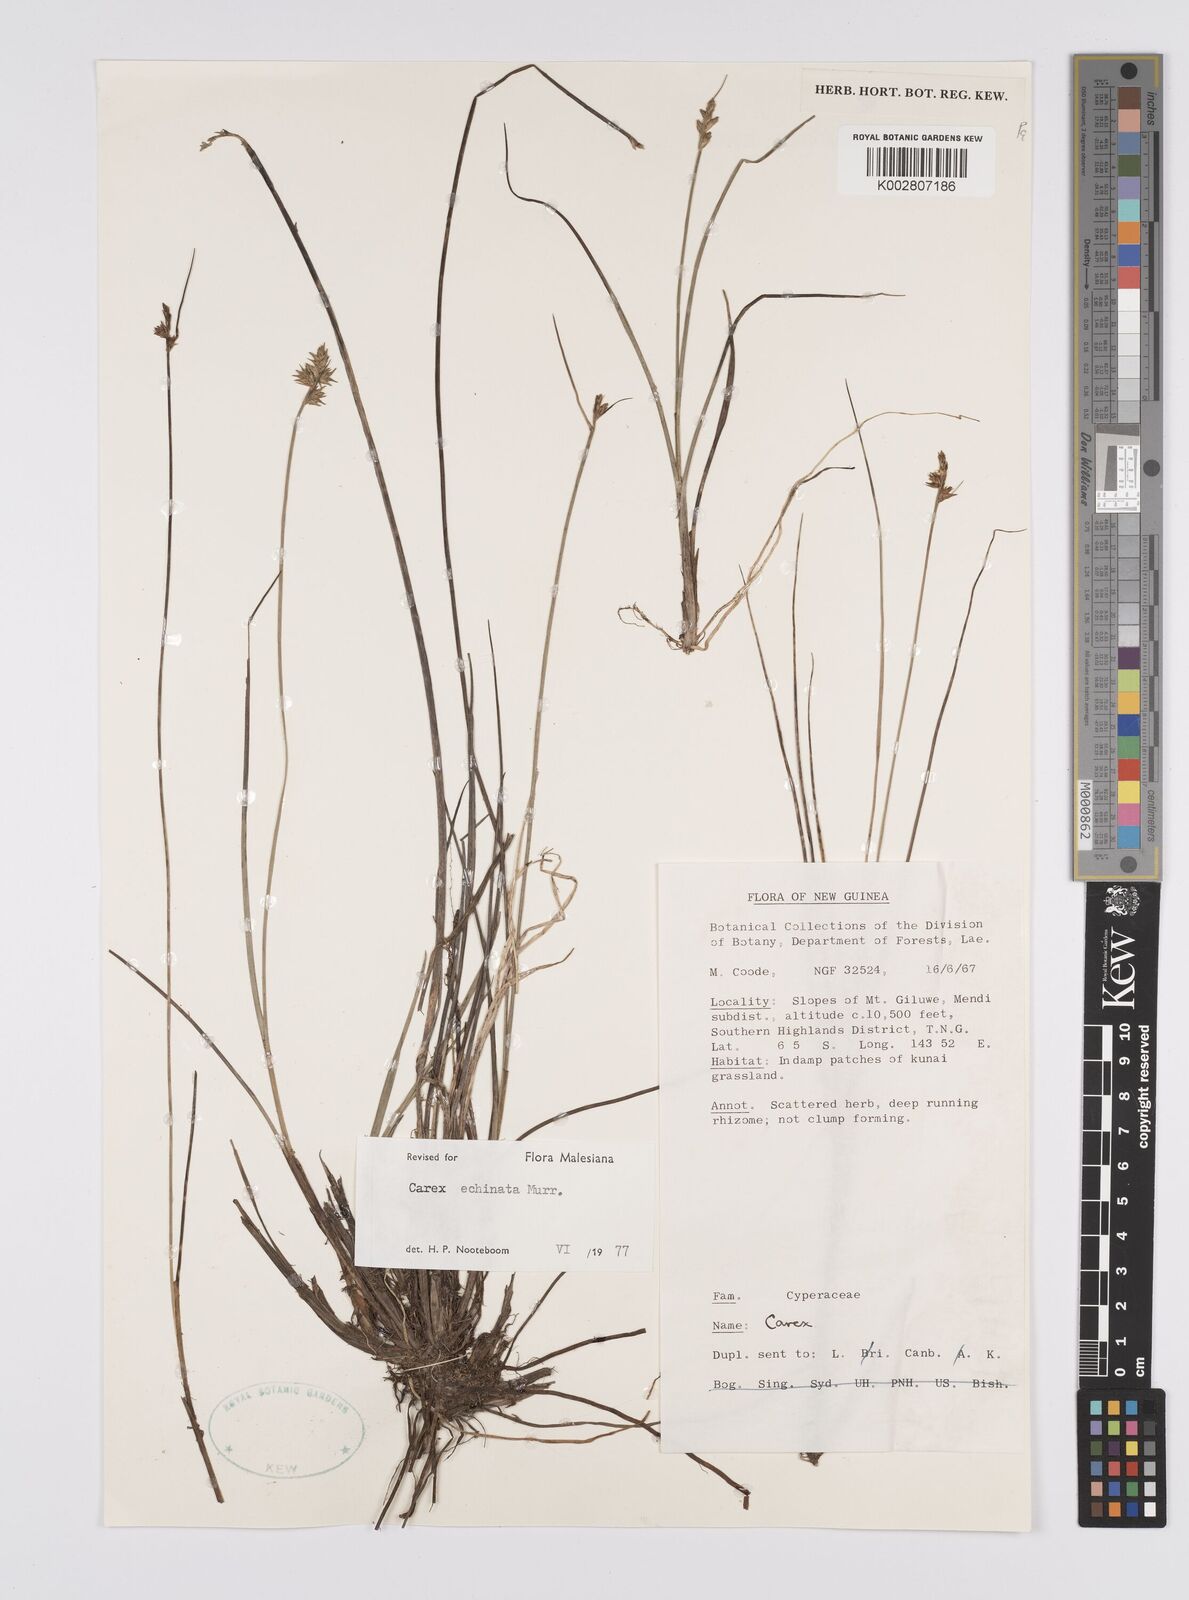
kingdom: Plantae
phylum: Tracheophyta
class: Liliopsida
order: Poales
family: Cyperaceae
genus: Carex
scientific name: Carex echinata
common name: Star sedge
